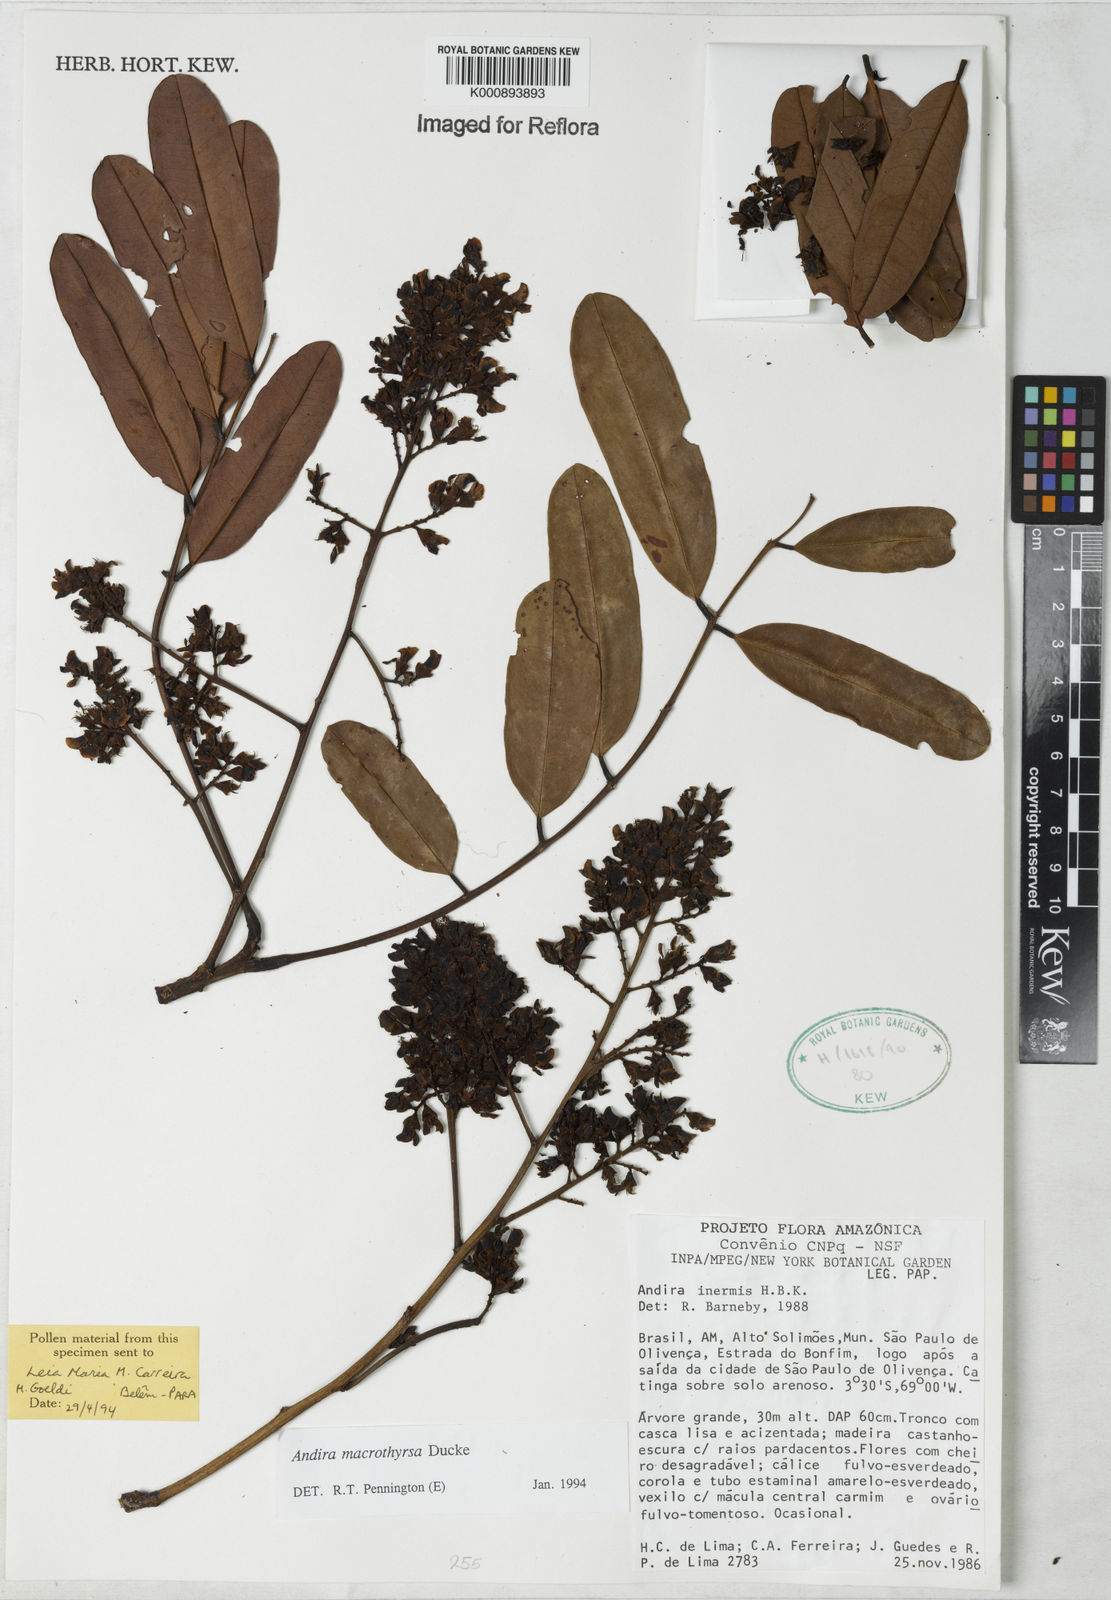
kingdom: Plantae
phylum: Tracheophyta
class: Magnoliopsida
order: Fabales
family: Fabaceae
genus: Andira
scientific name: Andira macrothyrsa
